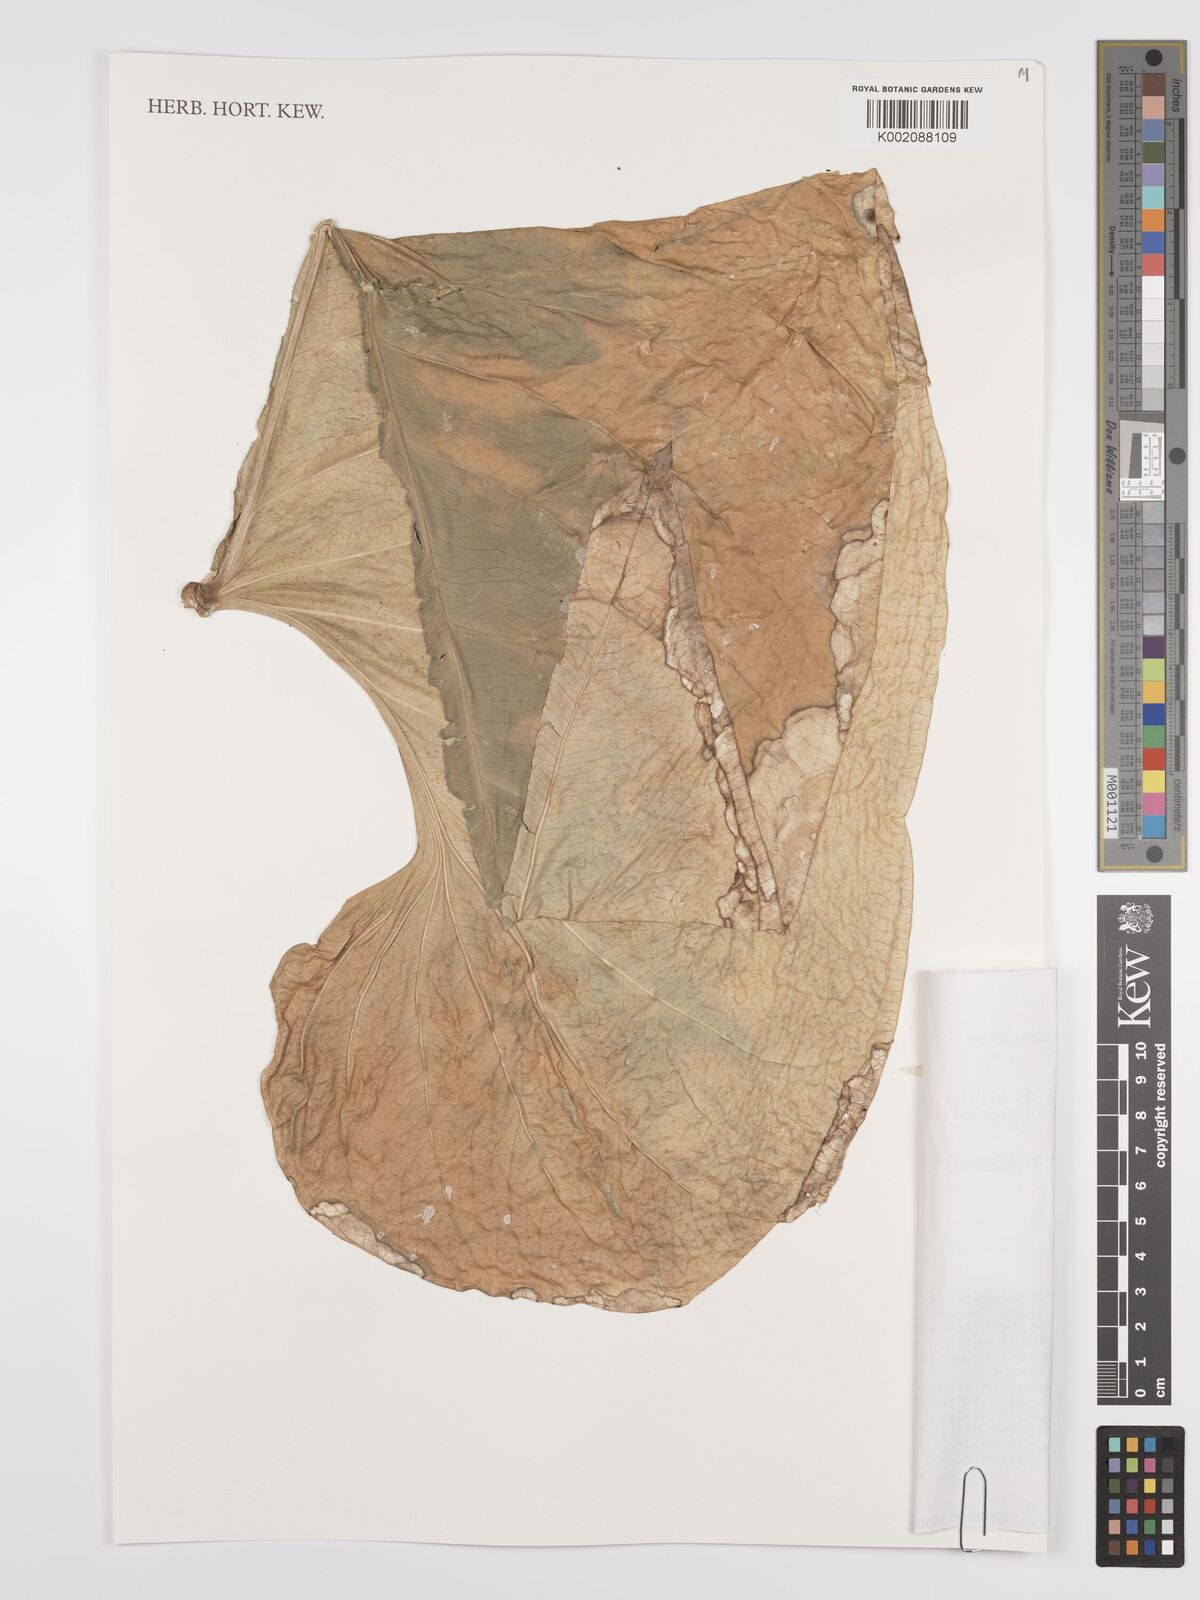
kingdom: Plantae
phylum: Tracheophyta
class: Liliopsida
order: Alismatales
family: Araceae
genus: Anthurium
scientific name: Anthurium watermaliense
